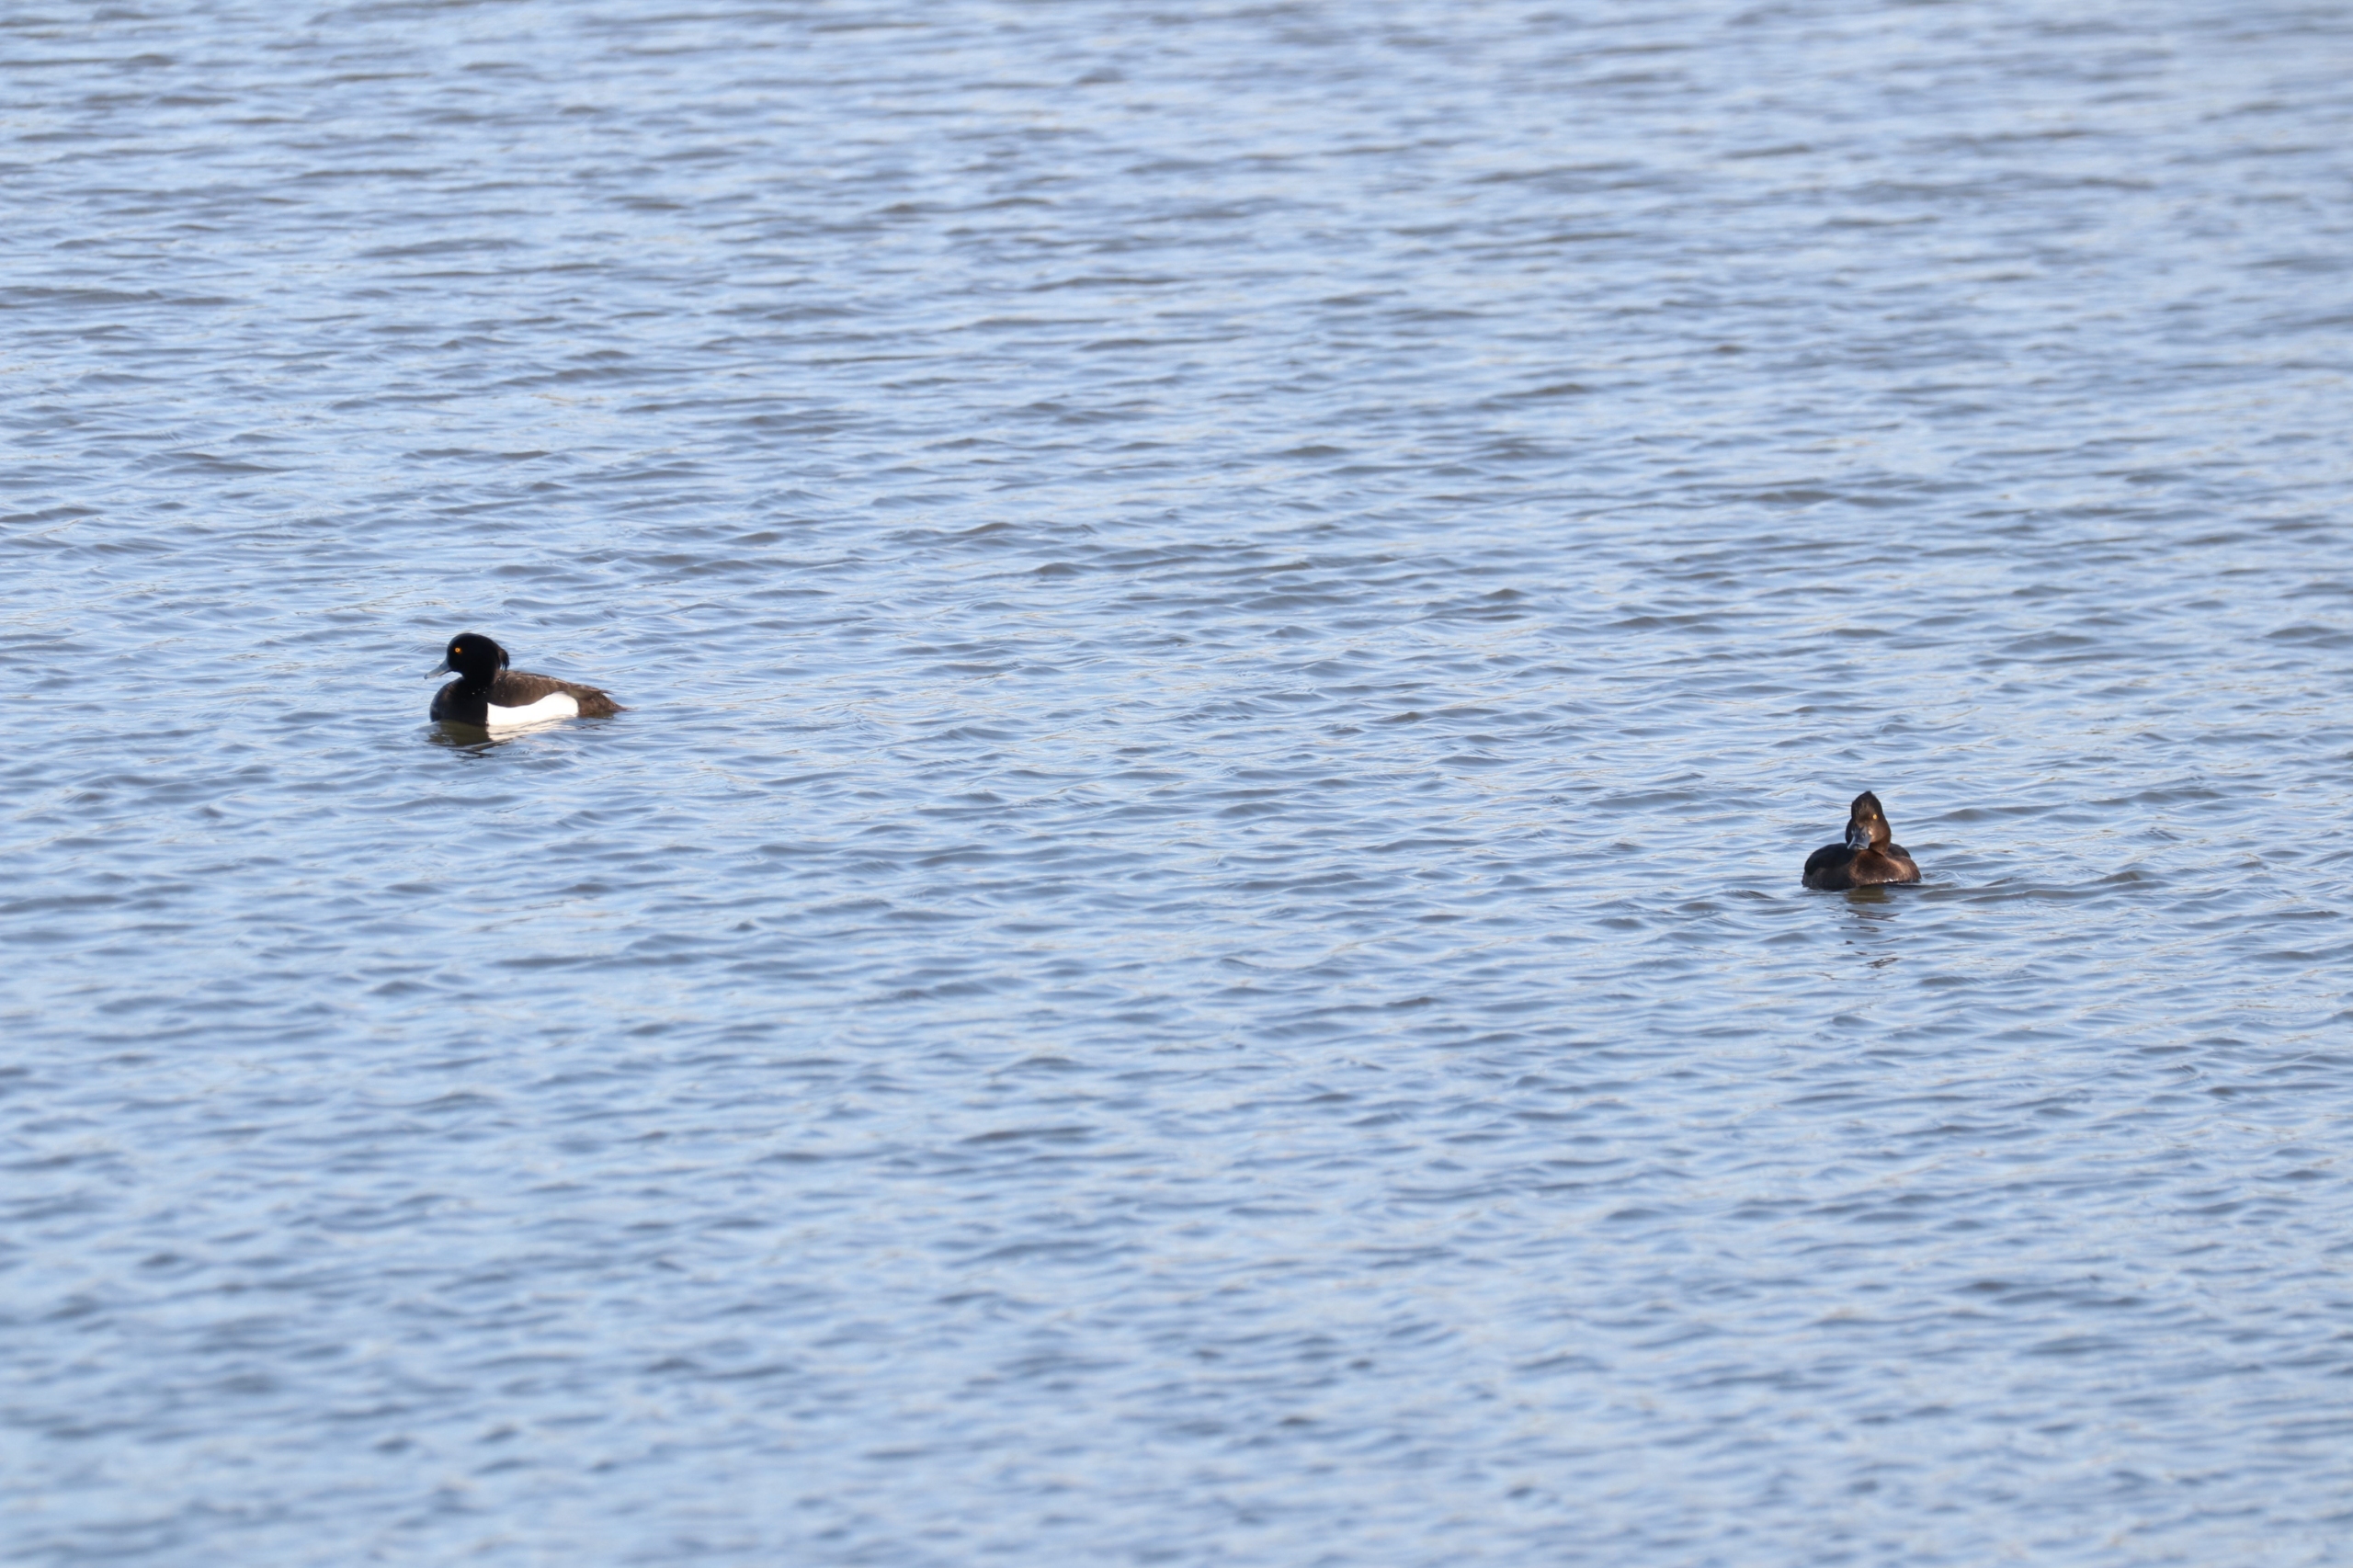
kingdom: Animalia
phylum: Chordata
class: Aves
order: Anseriformes
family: Anatidae
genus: Aythya
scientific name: Aythya fuligula
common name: Troldand
